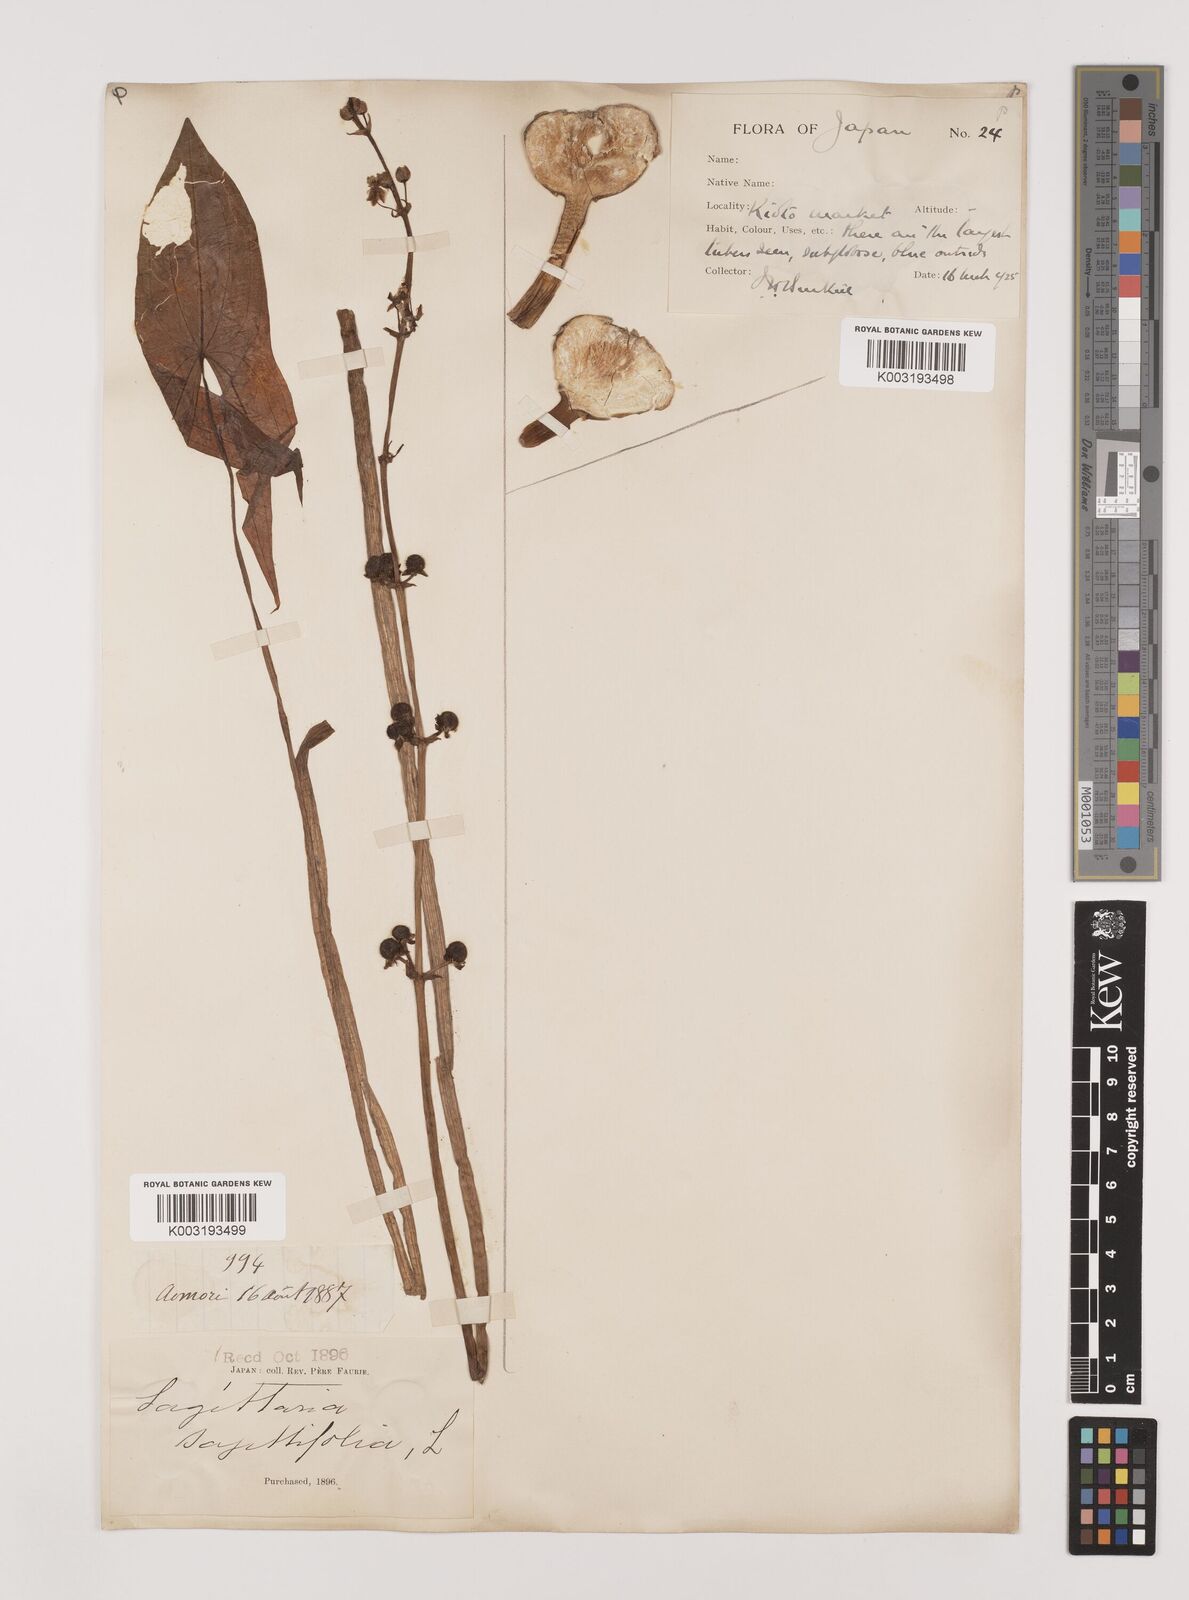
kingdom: Plantae
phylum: Tracheophyta
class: Liliopsida
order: Alismatales
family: Alismataceae
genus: Sagittaria
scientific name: Sagittaria sagittifolia
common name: Arrowhead
